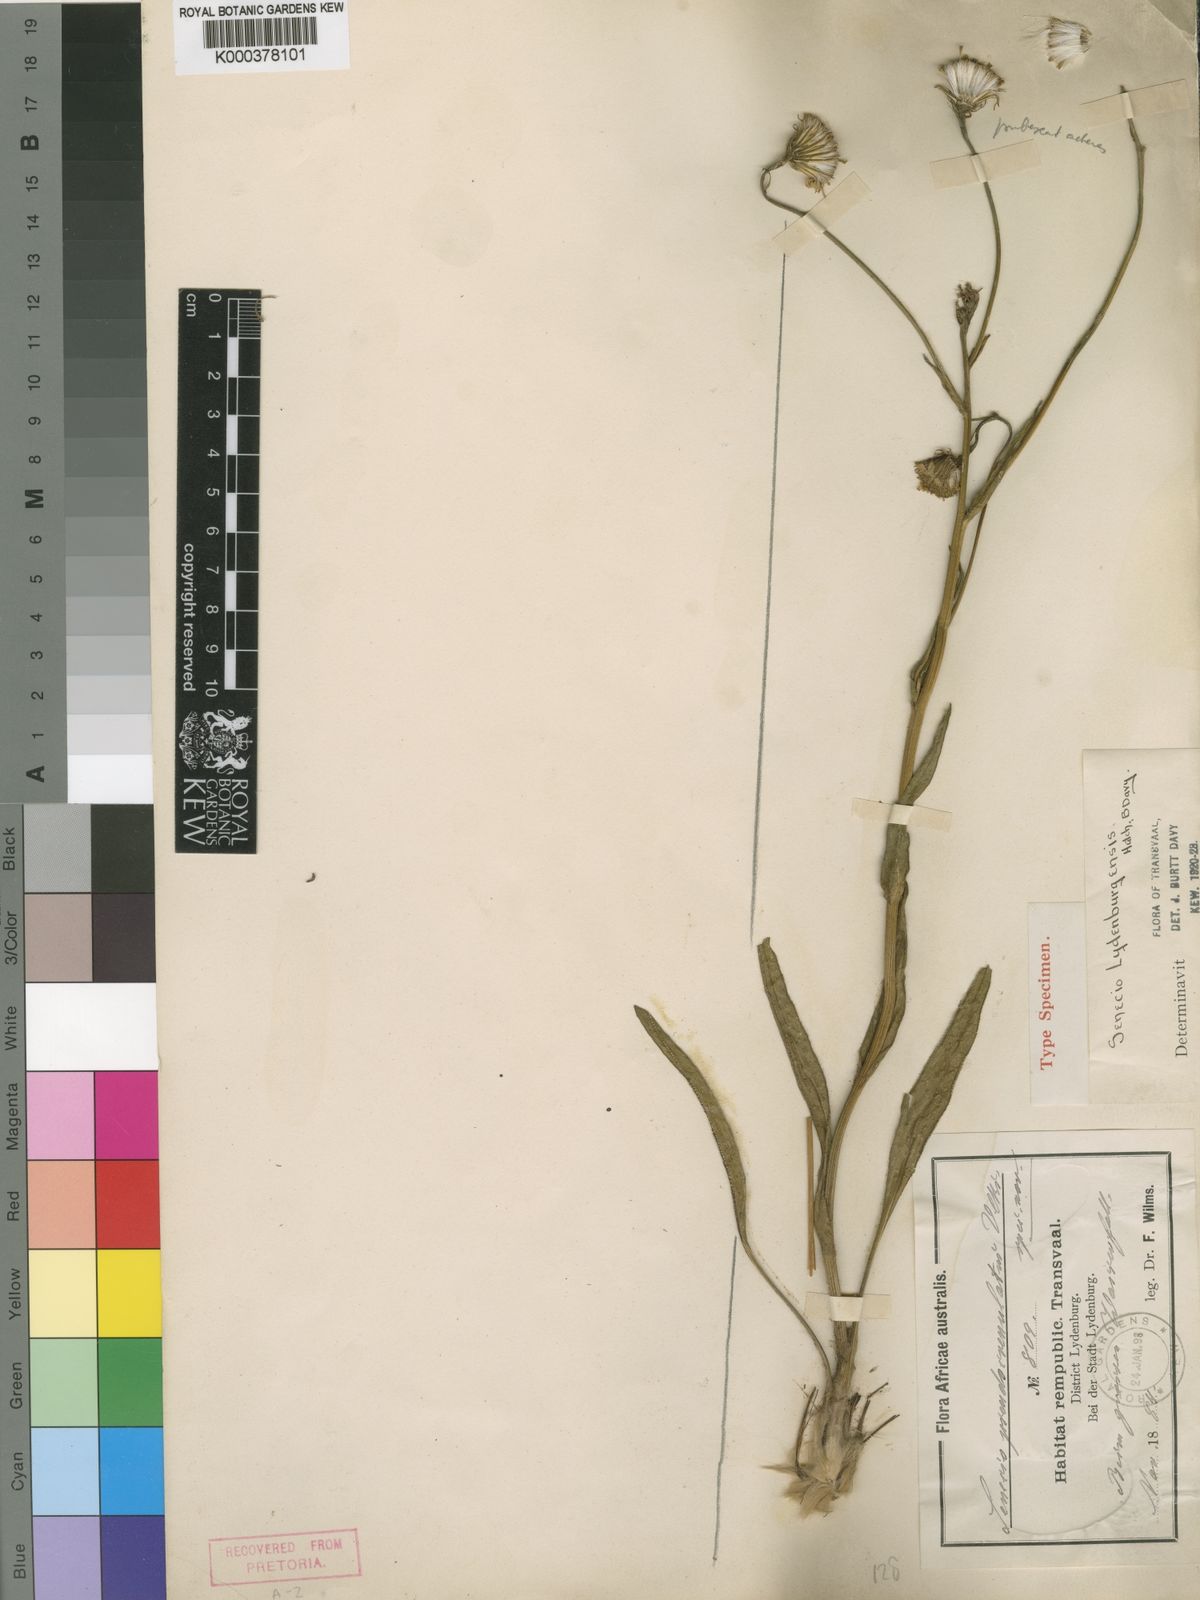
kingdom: Plantae
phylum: Tracheophyta
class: Magnoliopsida
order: Asterales
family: Asteraceae
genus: Senecio
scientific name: Senecio lydenburgensis
